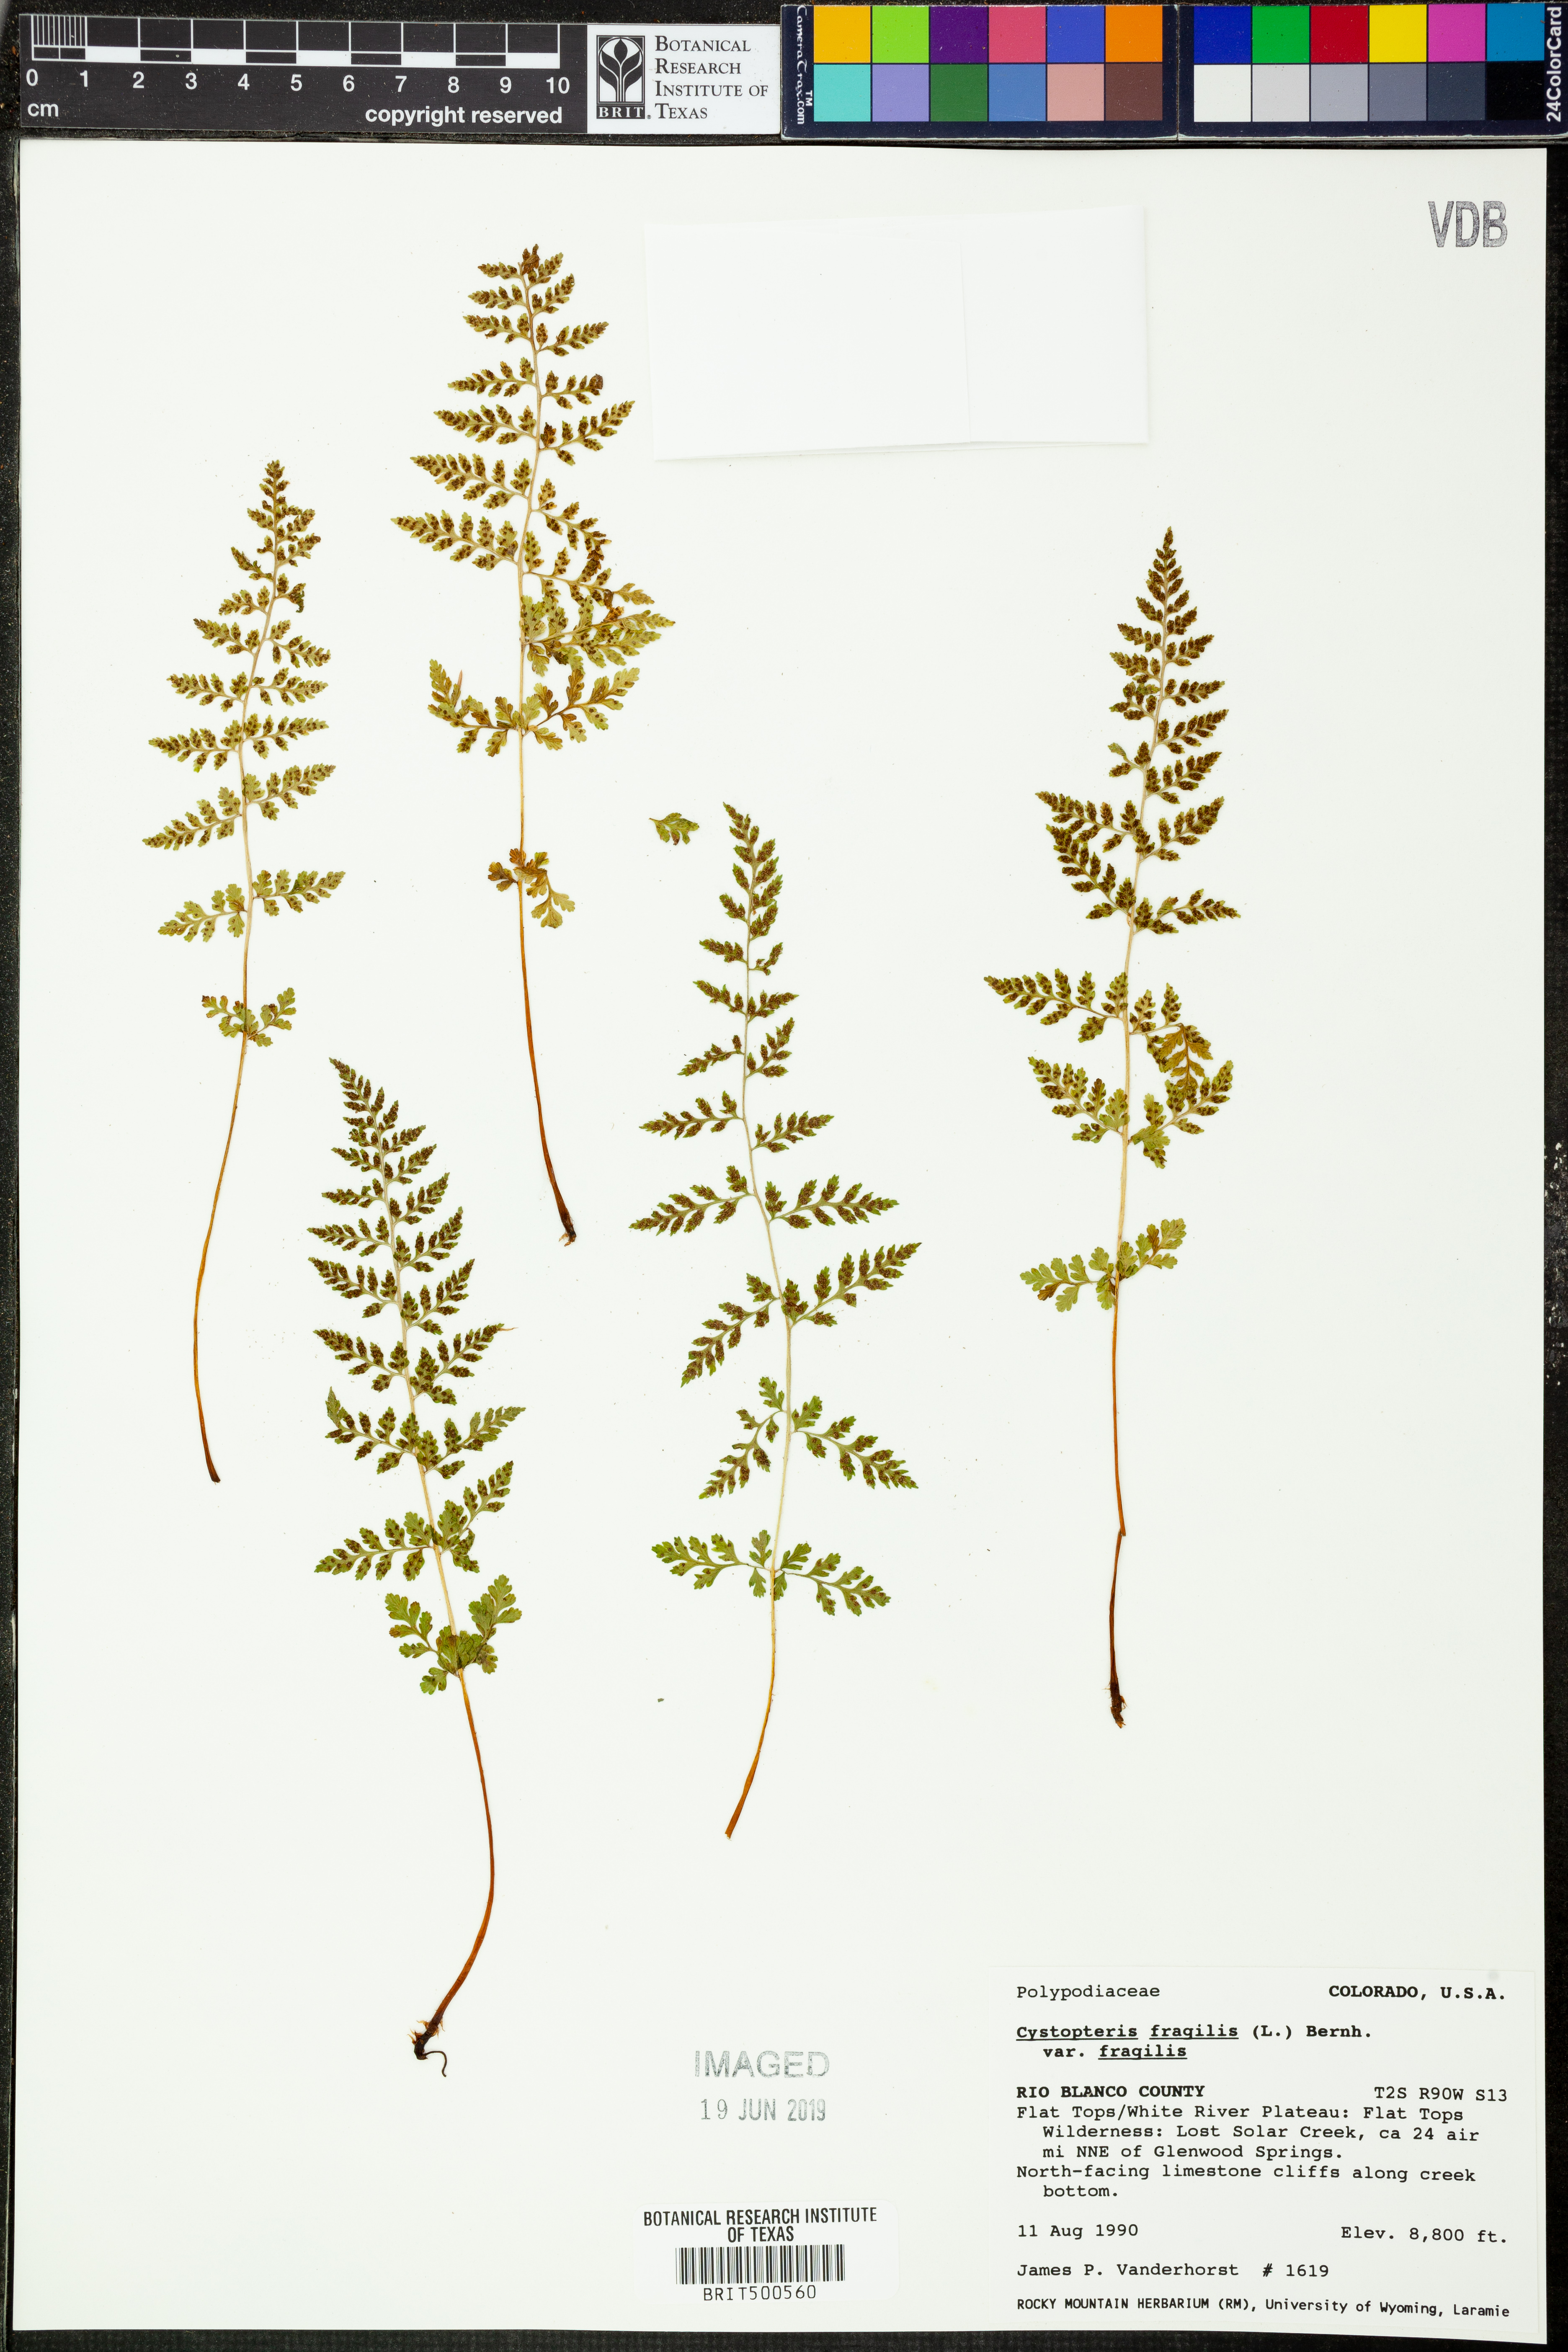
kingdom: Plantae
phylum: Tracheophyta
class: Polypodiopsida
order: Polypodiales
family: Cystopteridaceae
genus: Cystopteris
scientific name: Cystopteris fragilis
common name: Brittle bladder fern
